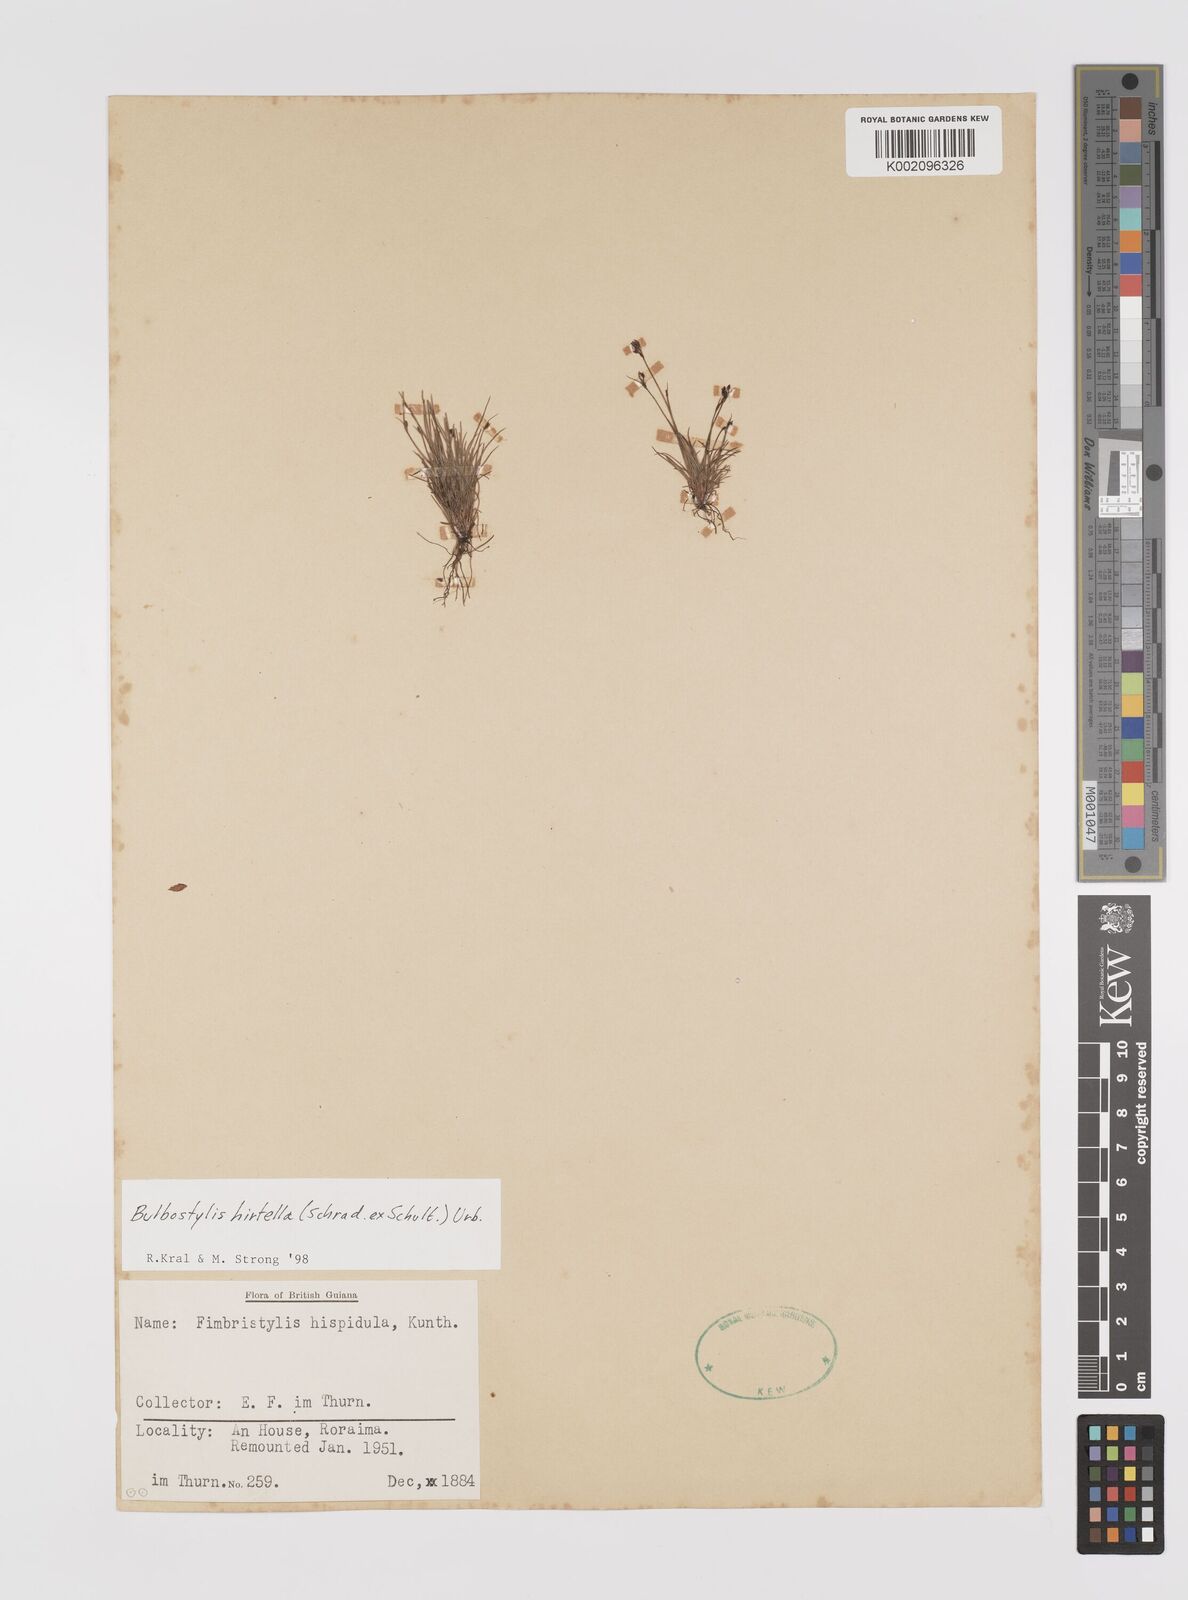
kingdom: Plantae
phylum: Tracheophyta
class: Liliopsida
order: Poales
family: Cyperaceae
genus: Bulbostylis
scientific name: Bulbostylis juncoides
